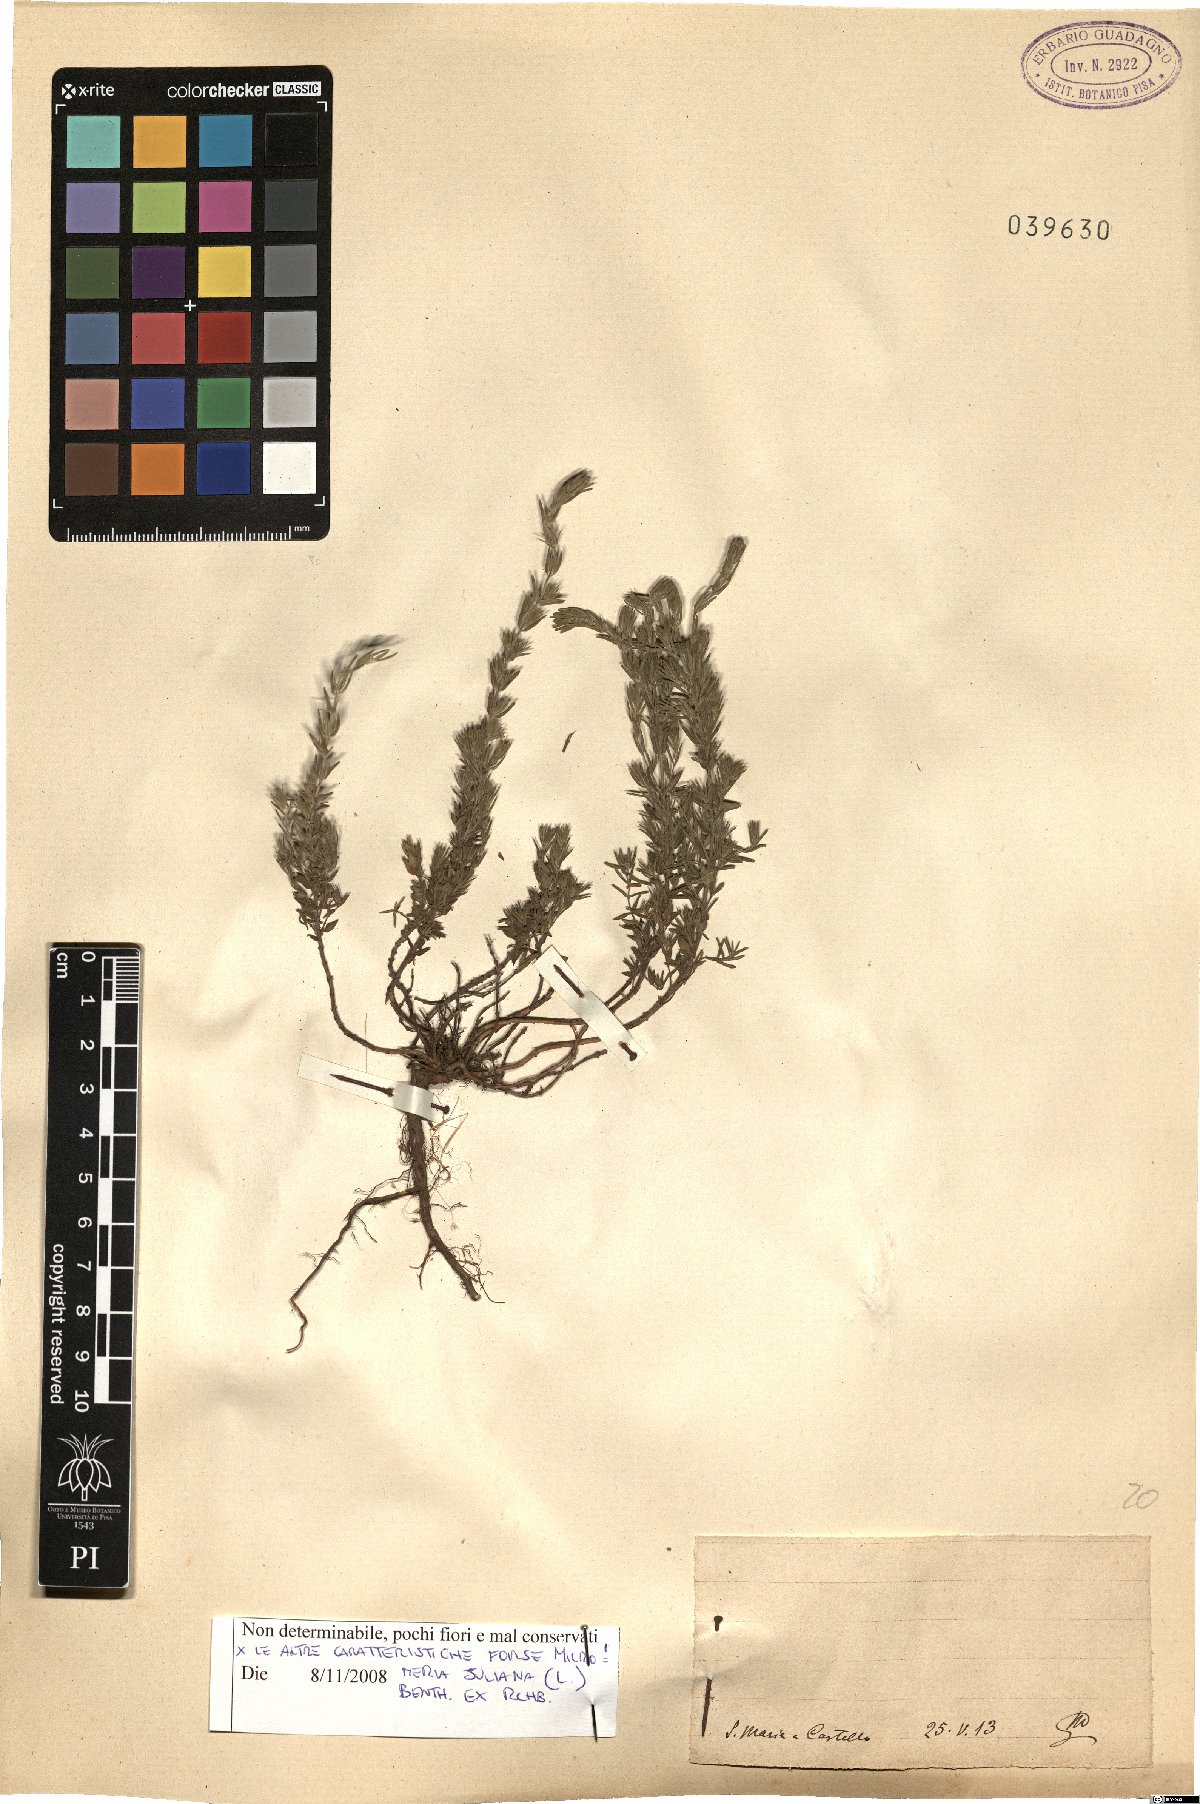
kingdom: Plantae
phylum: Tracheophyta
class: Magnoliopsida
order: Lamiales
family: Lamiaceae
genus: Micromeria
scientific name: Micromeria juliana
